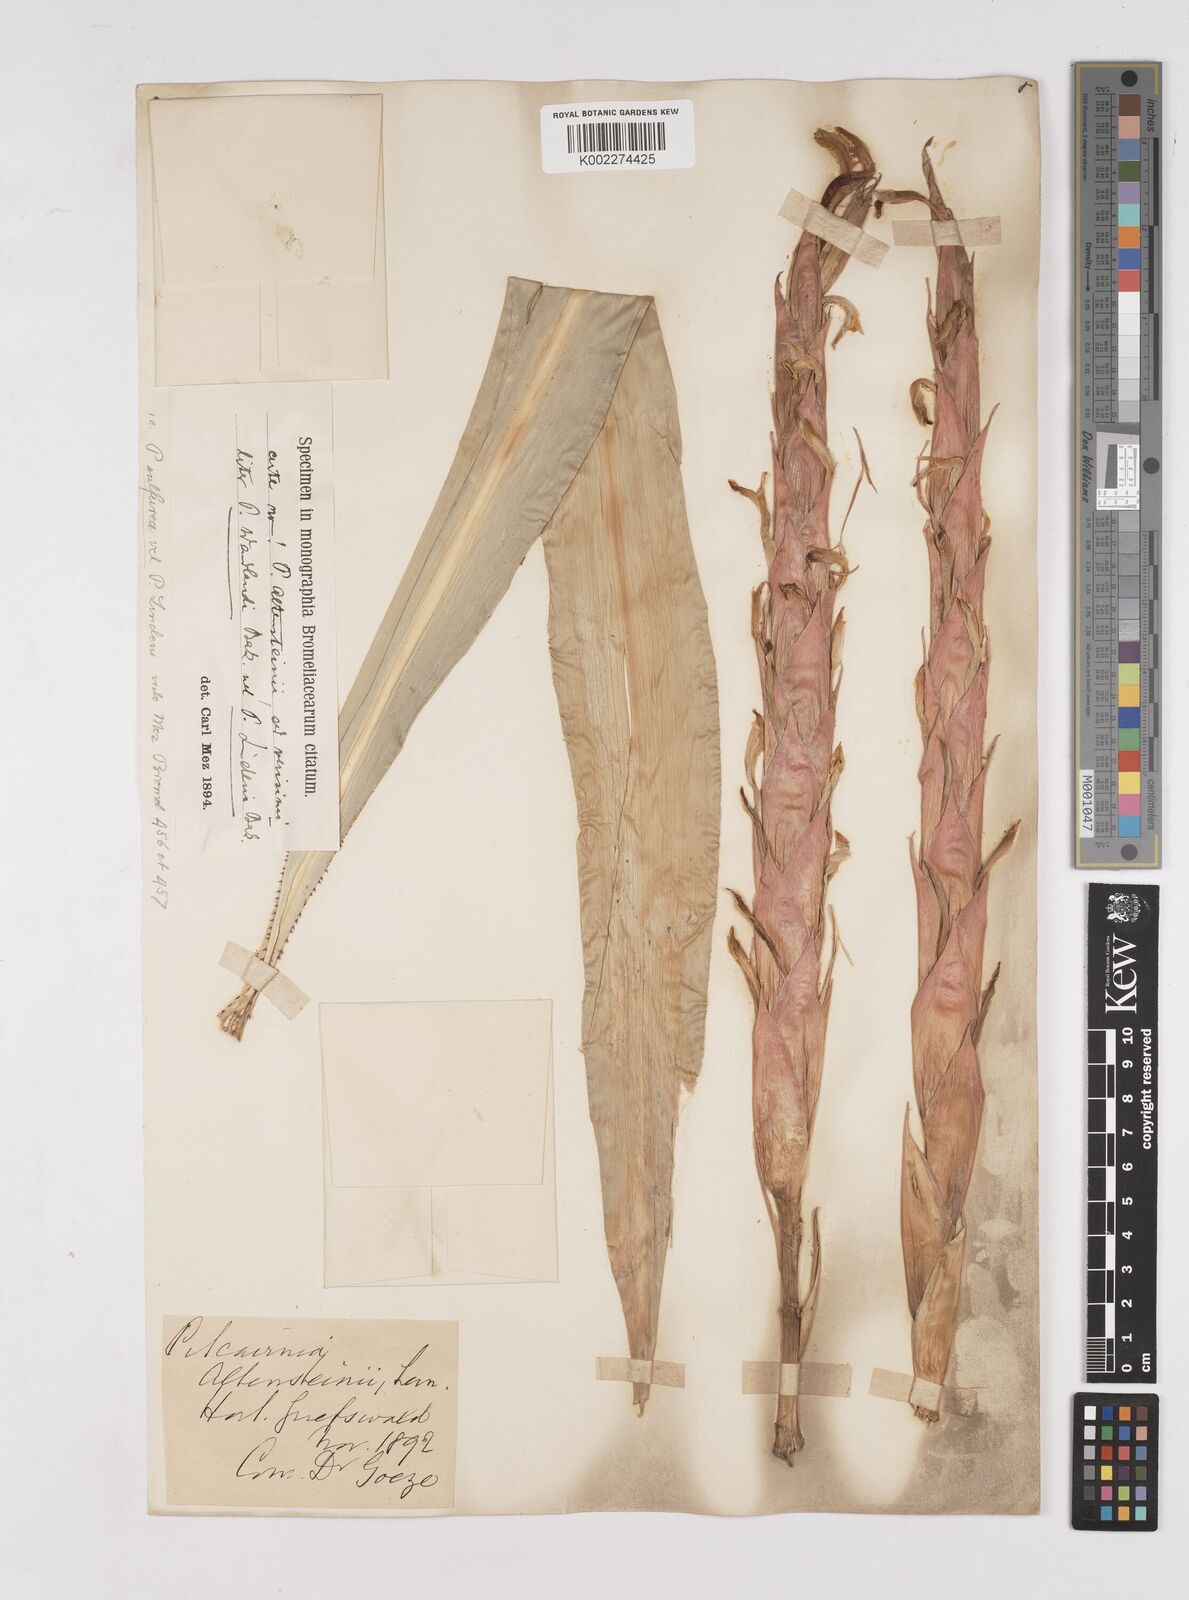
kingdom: Plantae
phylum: Tracheophyta
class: Liliopsida
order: Poales
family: Bromeliaceae
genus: Pitcairnia
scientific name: Pitcairnia wendlandii
